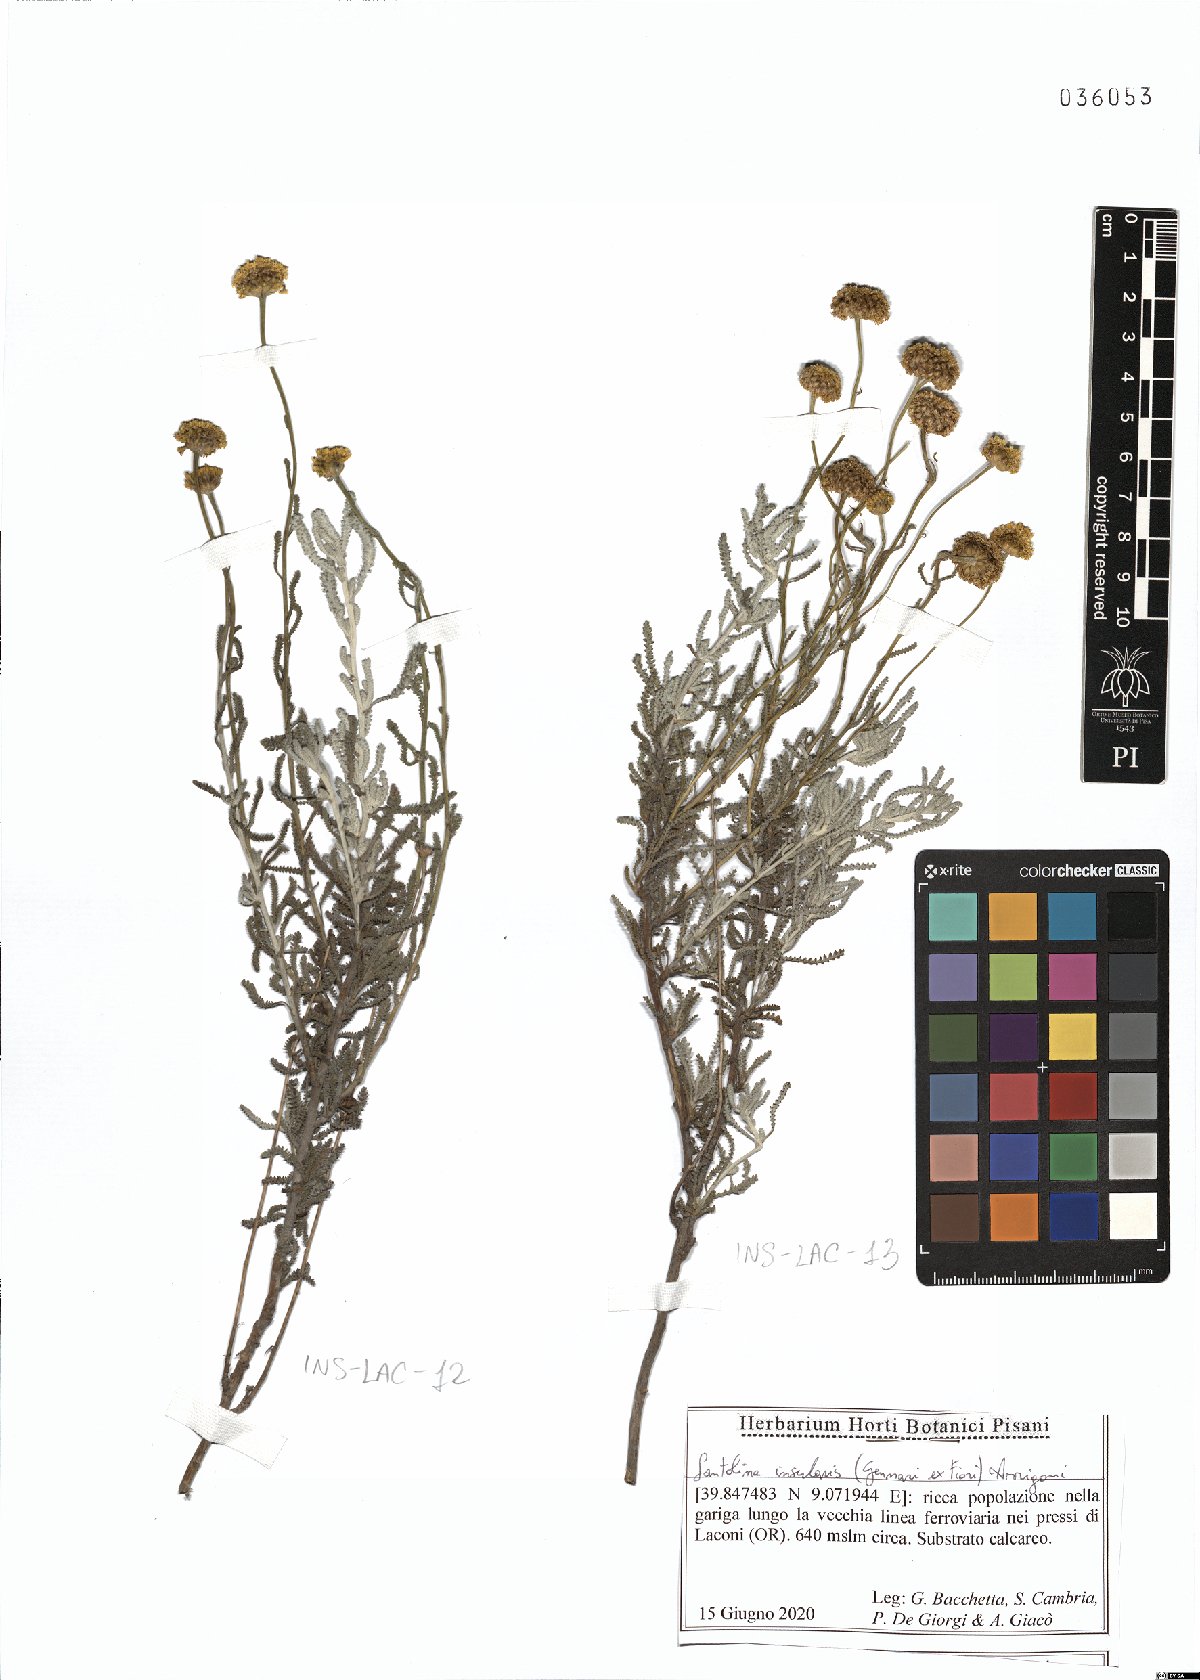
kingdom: Plantae
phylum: Tracheophyta
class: Magnoliopsida
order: Asterales
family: Asteraceae
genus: Santolina
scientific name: Santolina insularis
